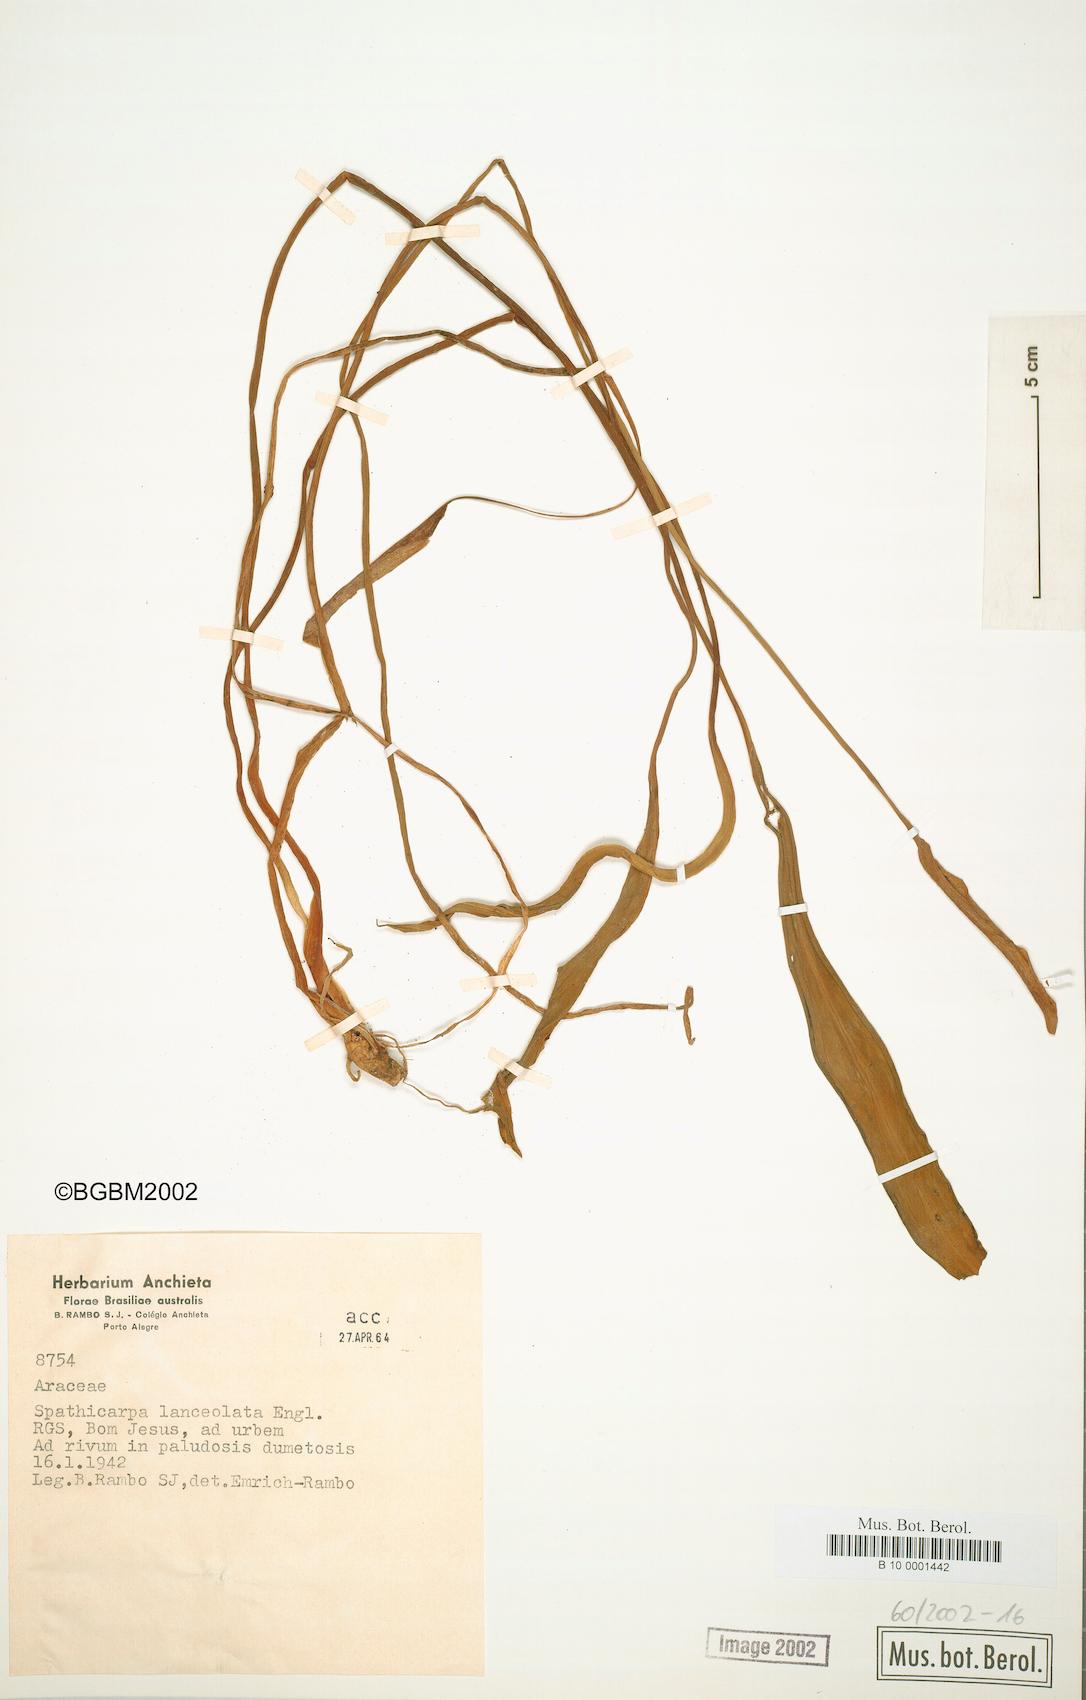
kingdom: Plantae
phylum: Tracheophyta
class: Liliopsida
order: Alismatales
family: Araceae
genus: Spathicarpa
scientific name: Spathicarpa lanceolata
